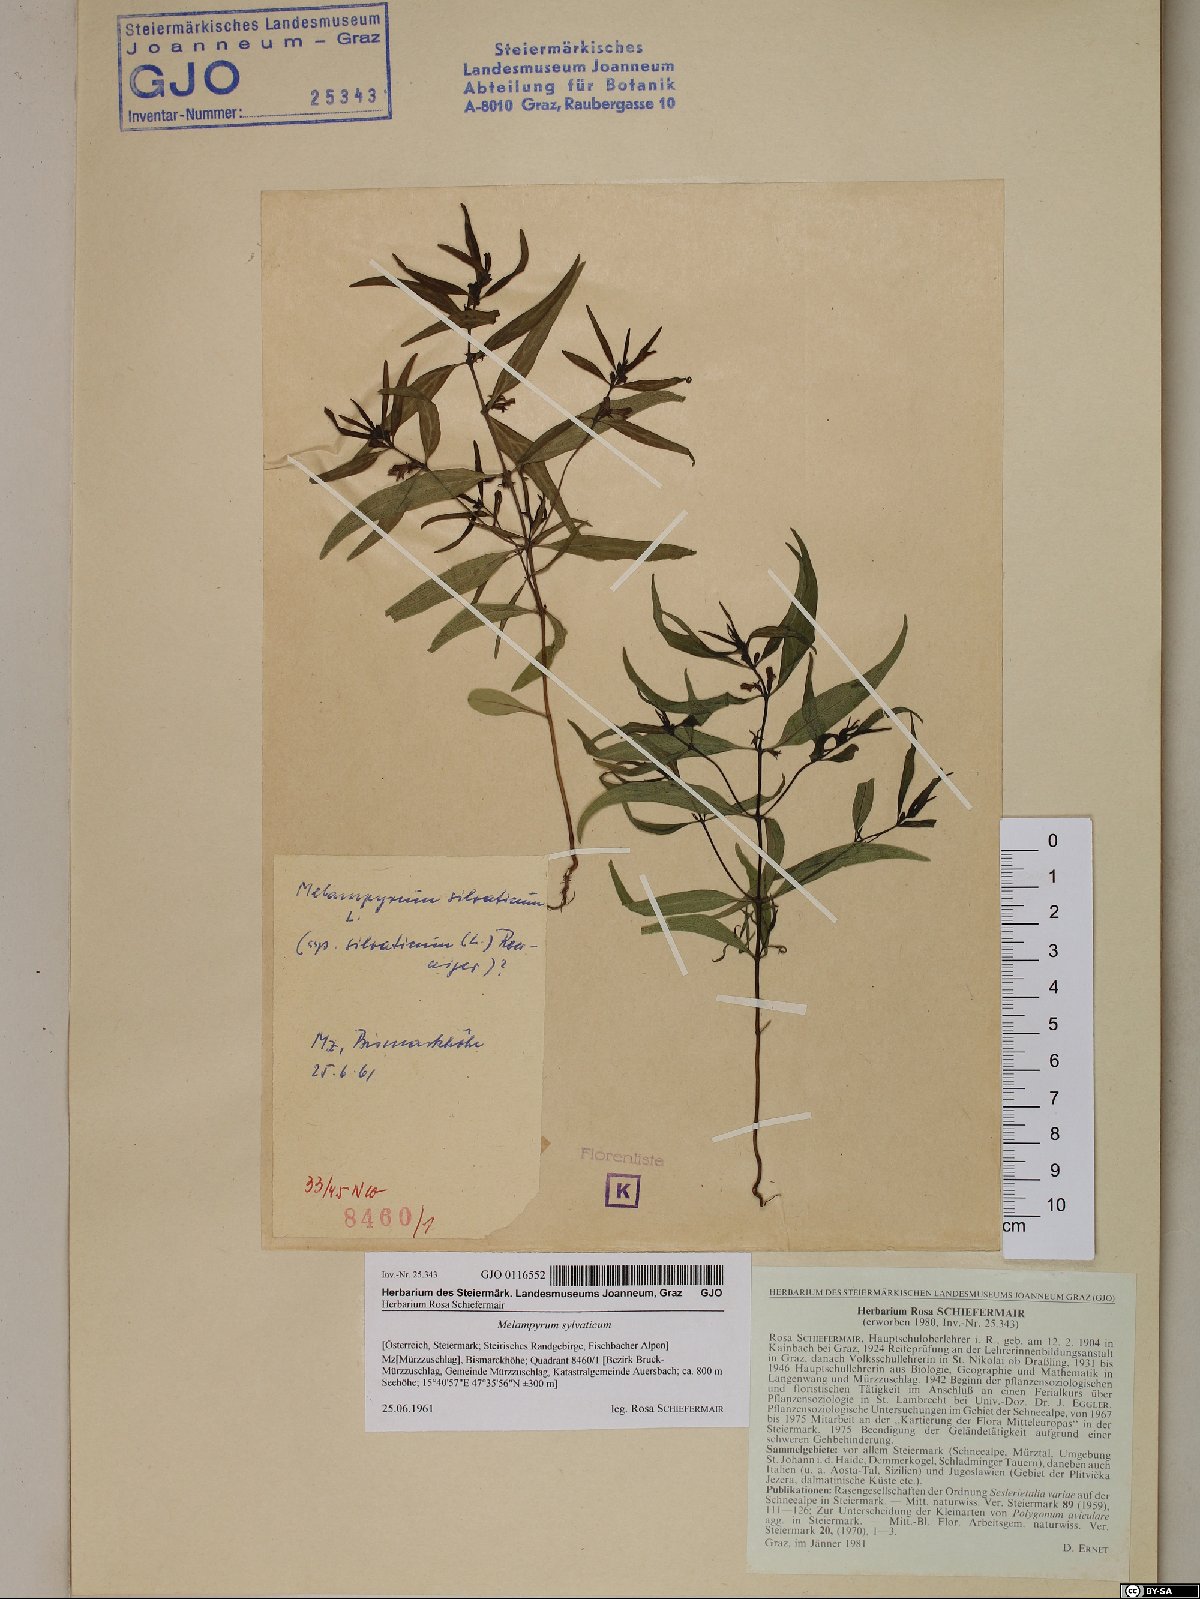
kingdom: Plantae
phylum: Tracheophyta
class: Magnoliopsida
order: Lamiales
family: Orobanchaceae
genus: Melampyrum
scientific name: Melampyrum sylvaticum
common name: Small cow-wheat
